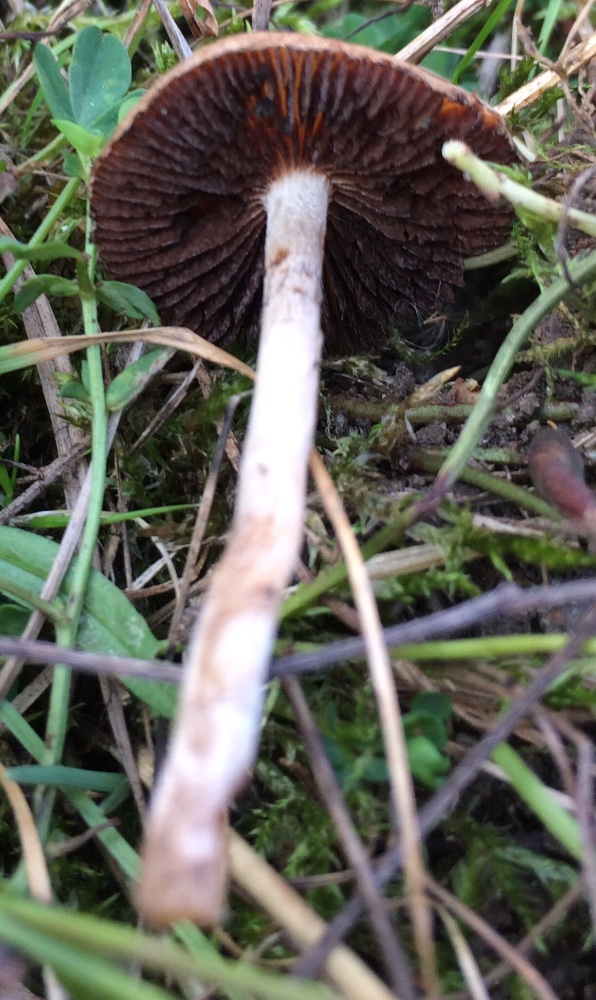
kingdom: Fungi
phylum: Basidiomycota
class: Agaricomycetes
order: Agaricales
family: Psathyrellaceae
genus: Lacrymaria
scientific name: Lacrymaria
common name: mørkhat
